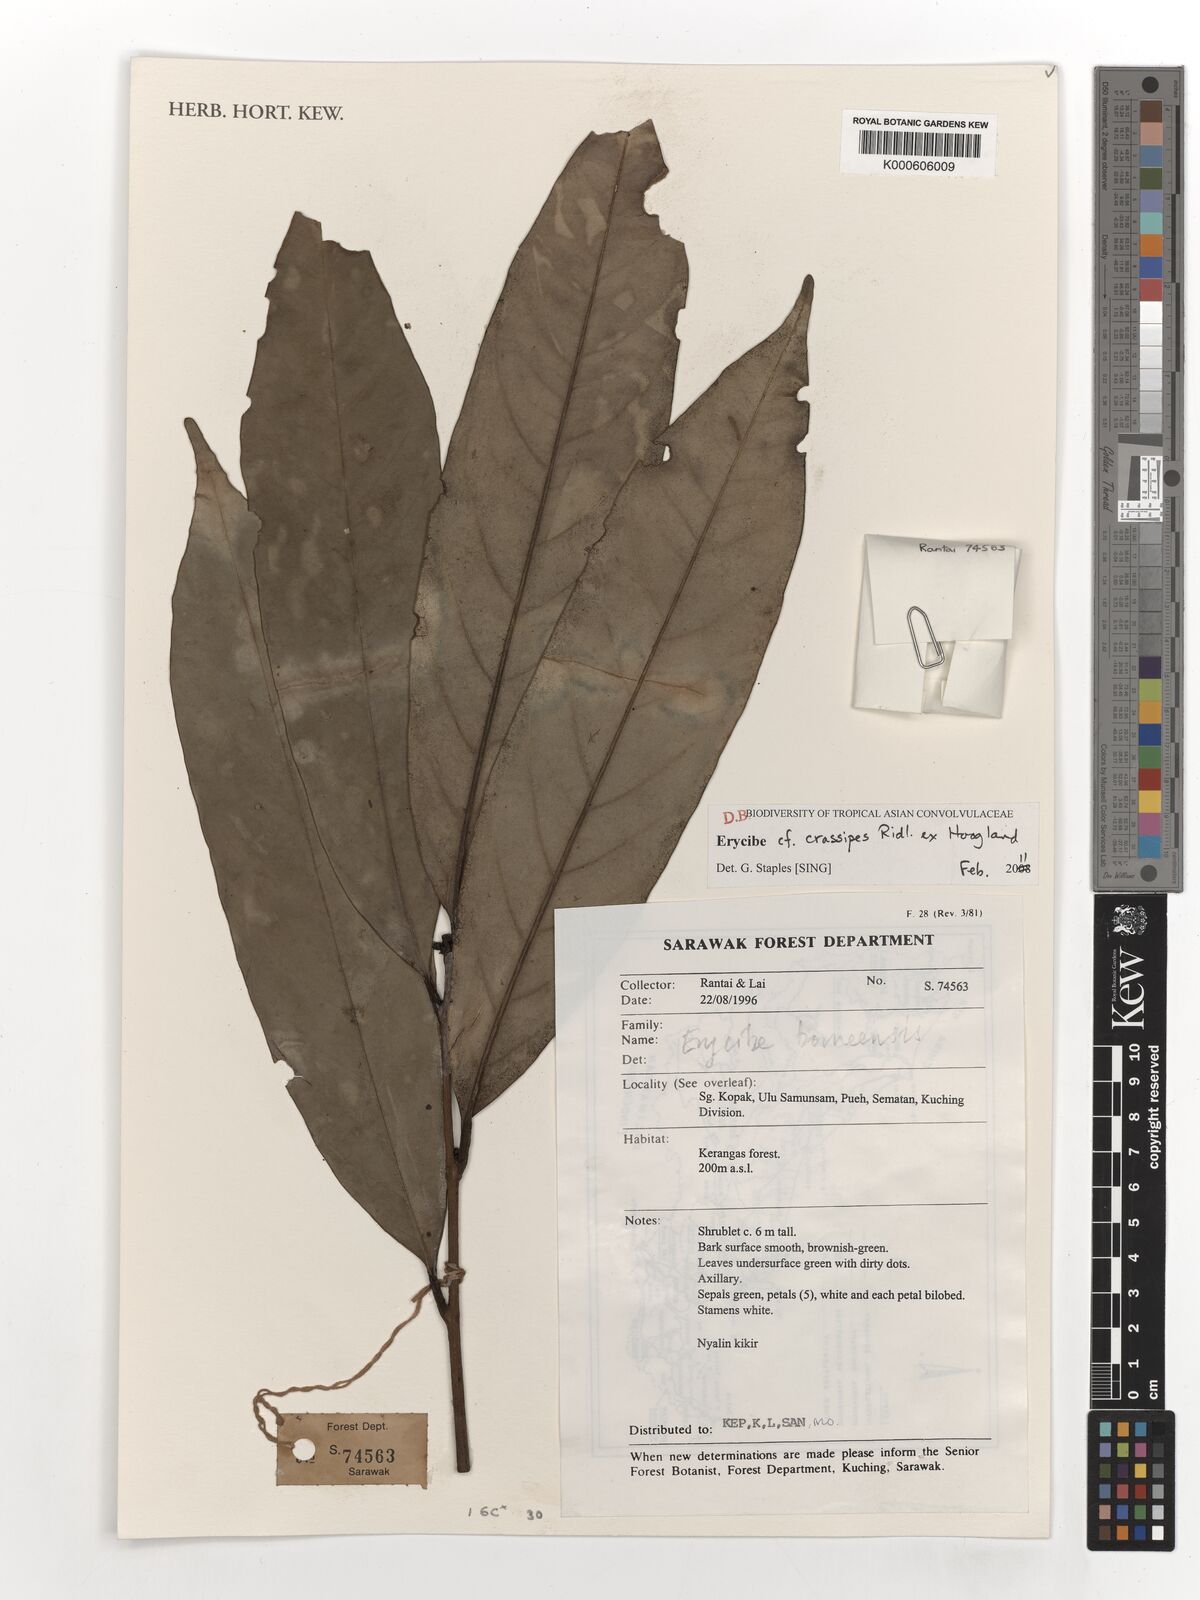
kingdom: Plantae
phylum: Tracheophyta
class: Magnoliopsida
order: Solanales
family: Convolvulaceae
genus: Erycibe
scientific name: Erycibe crassipes
